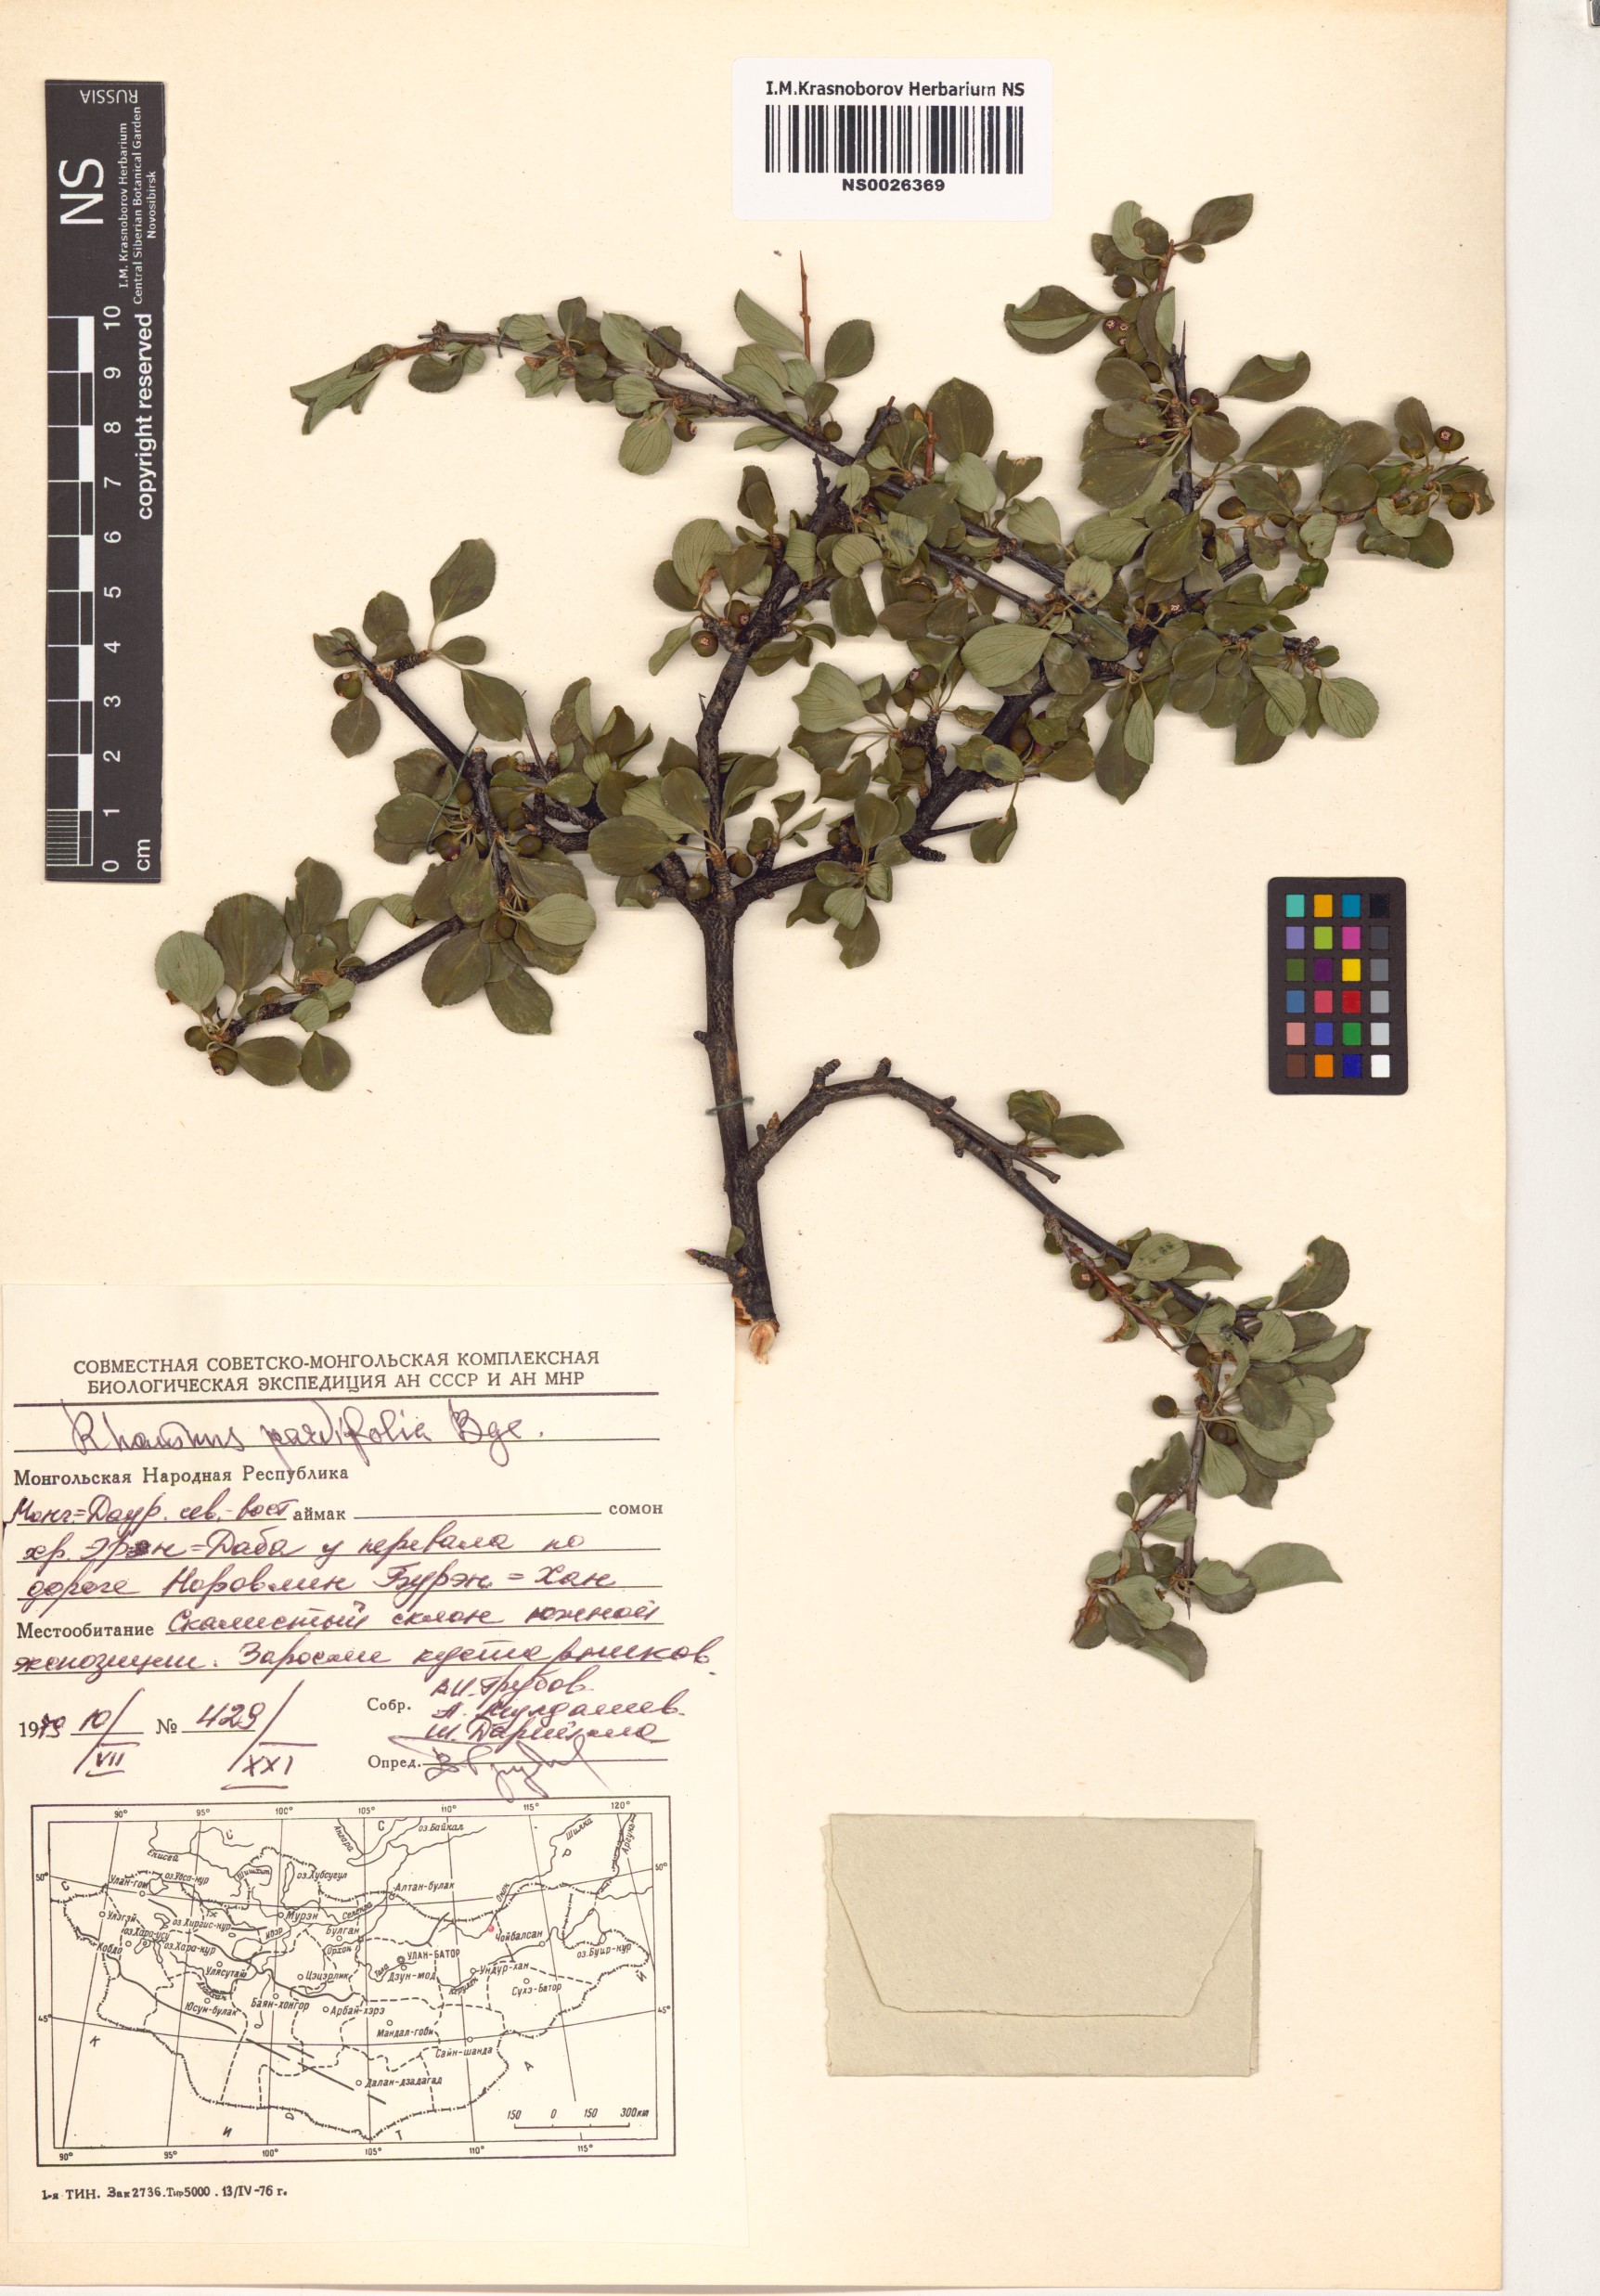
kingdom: Plantae
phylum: Tracheophyta
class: Magnoliopsida
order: Rosales
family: Rhamnaceae
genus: Rhamnus
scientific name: Rhamnus parvifolia
